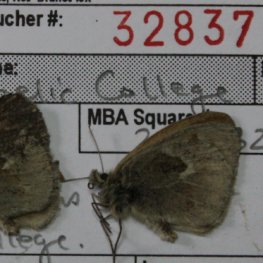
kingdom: Animalia
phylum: Arthropoda
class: Insecta
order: Lepidoptera
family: Nymphalidae
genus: Coenonympha
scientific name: Coenonympha tullia
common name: Large Heath
